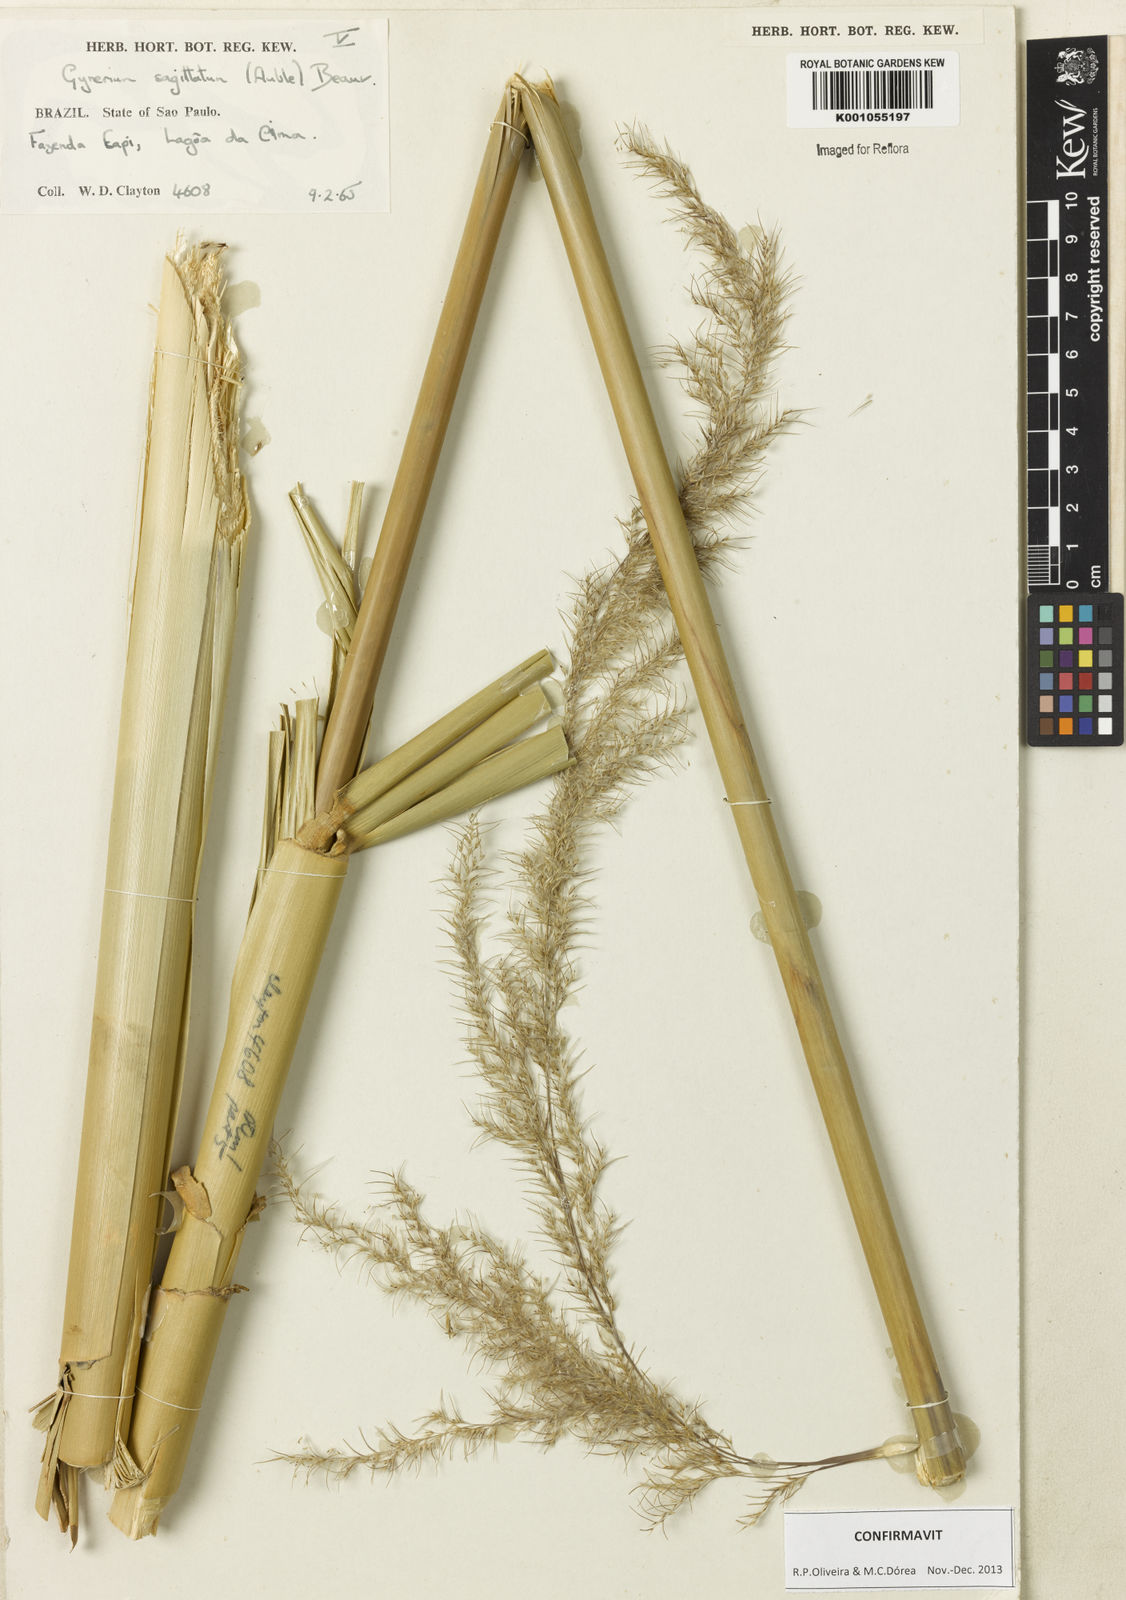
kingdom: Plantae
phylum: Tracheophyta
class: Liliopsida
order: Poales
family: Poaceae
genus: Gynerium
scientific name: Gynerium sagittatum
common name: Wild cane
